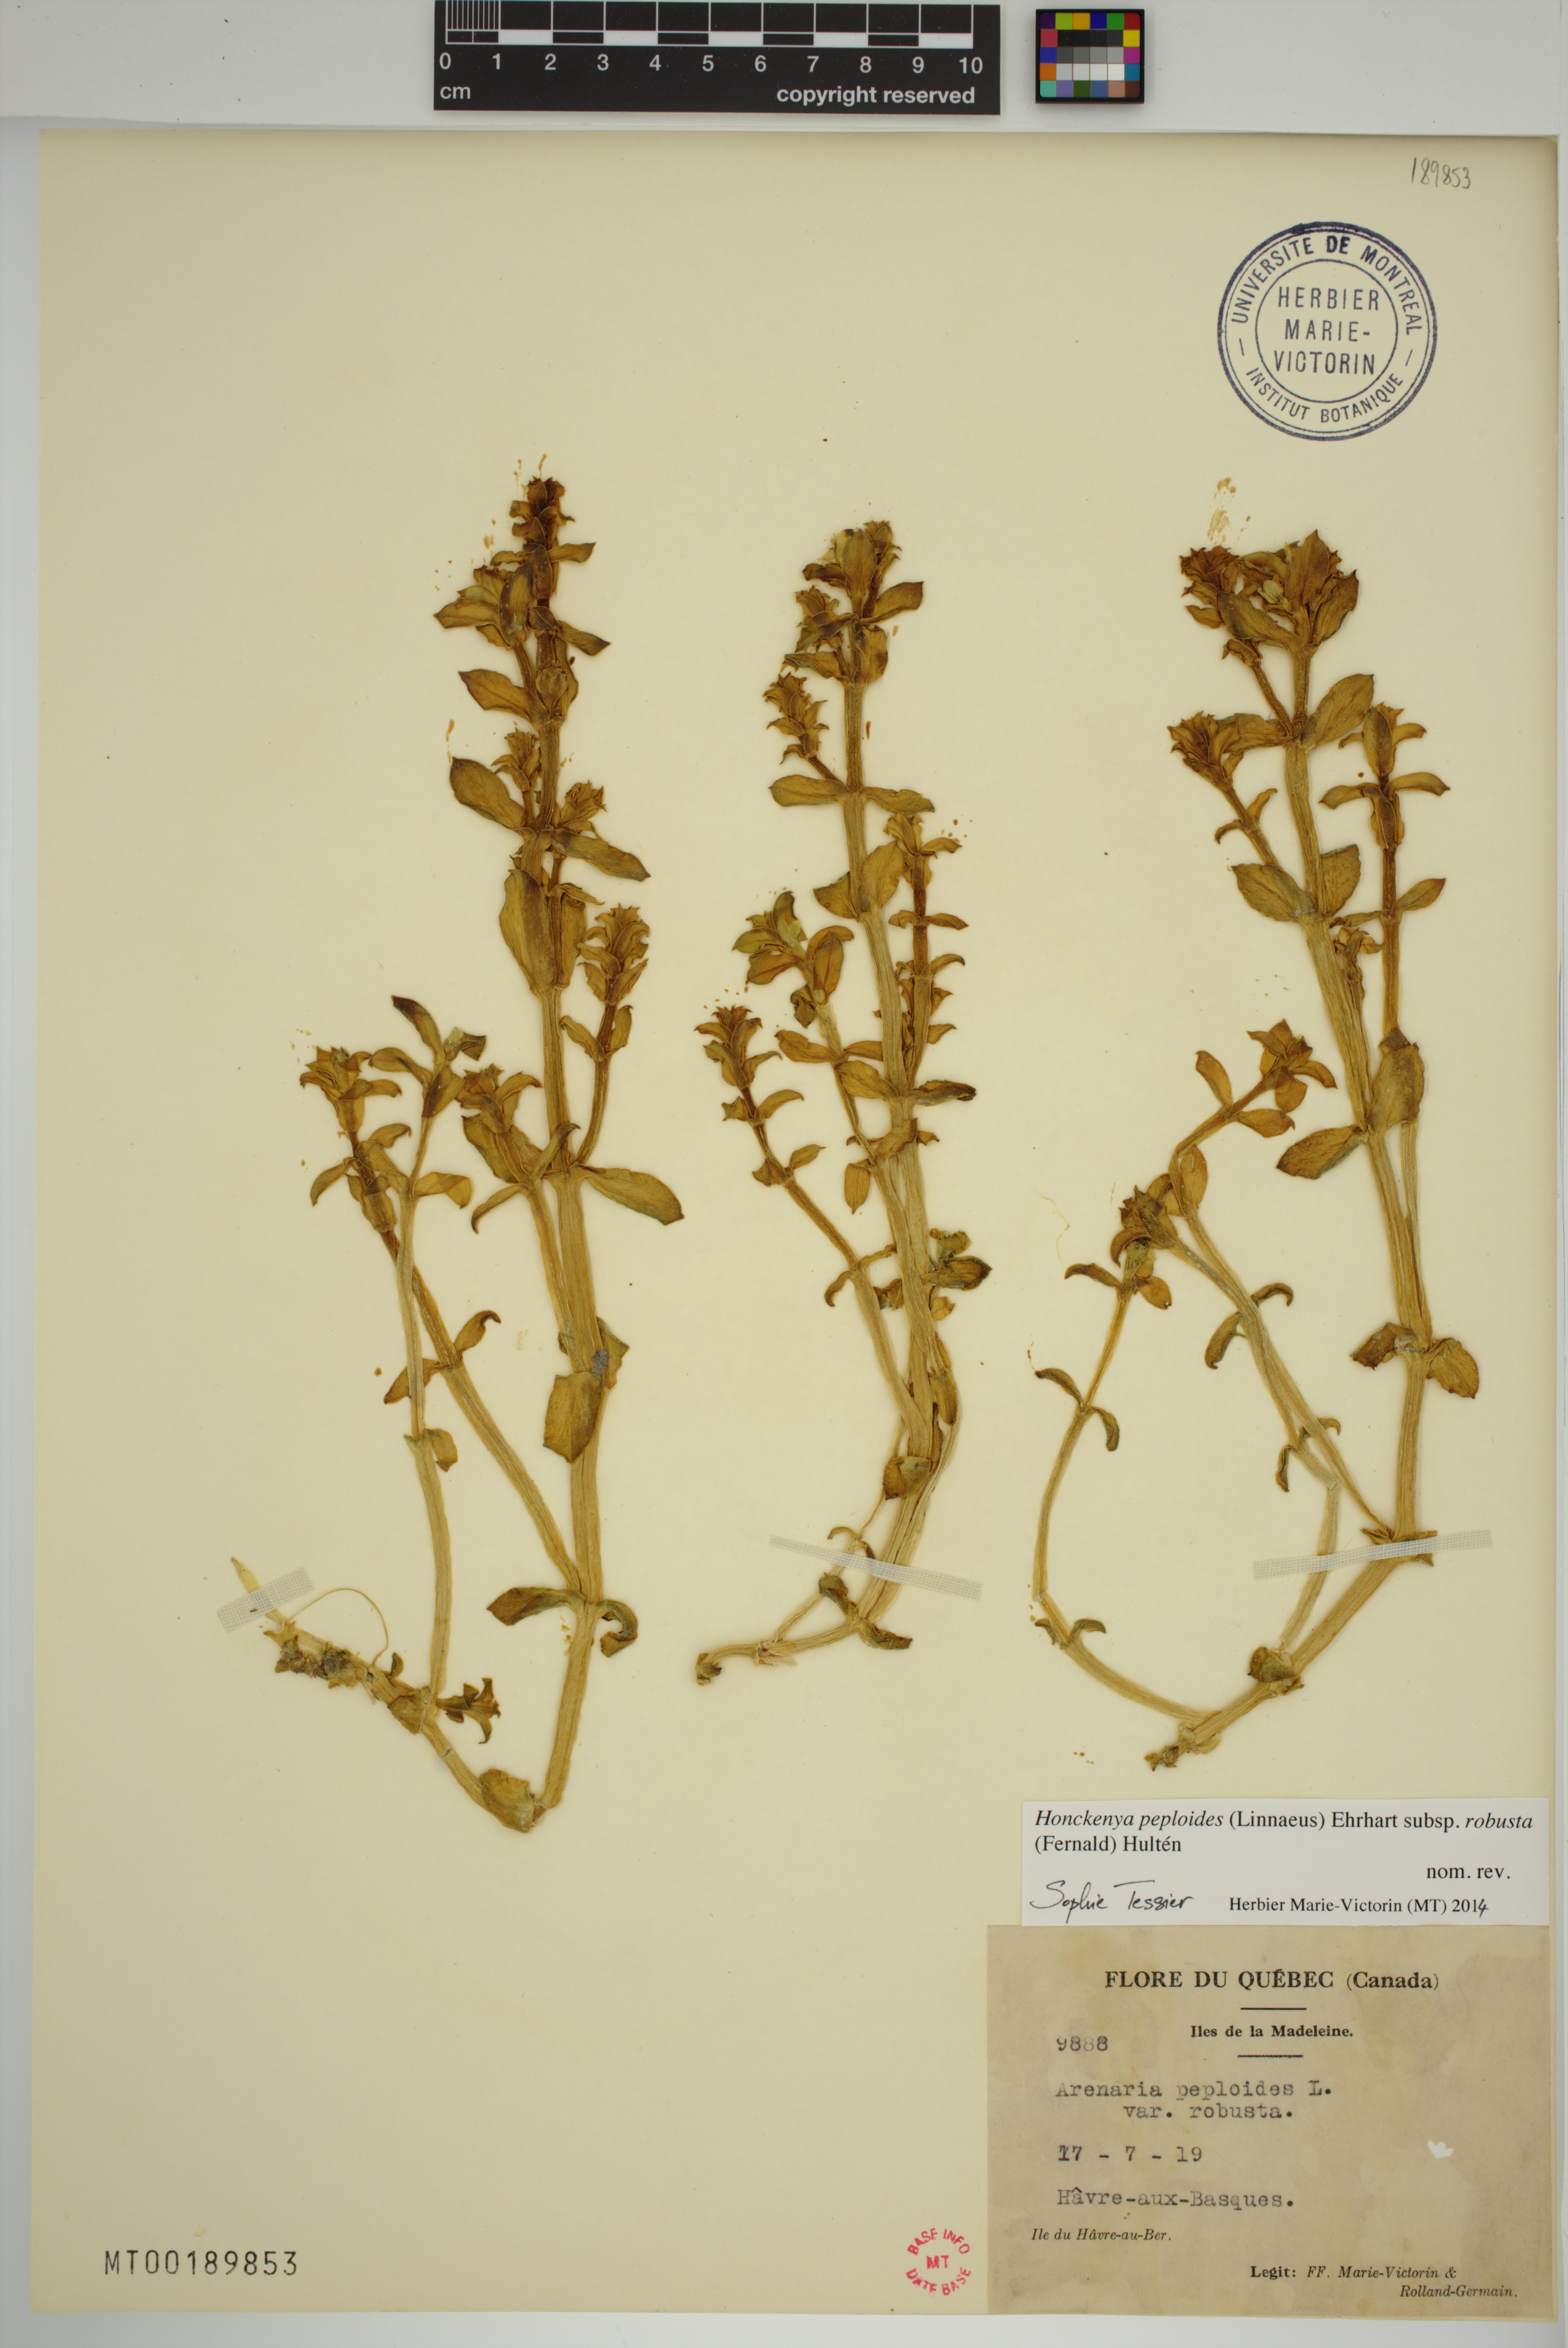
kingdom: Plantae
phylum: Tracheophyta
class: Magnoliopsida
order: Caryophyllales
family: Caryophyllaceae
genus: Honckenya
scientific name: Honckenya peploides
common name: Sea sandwort
